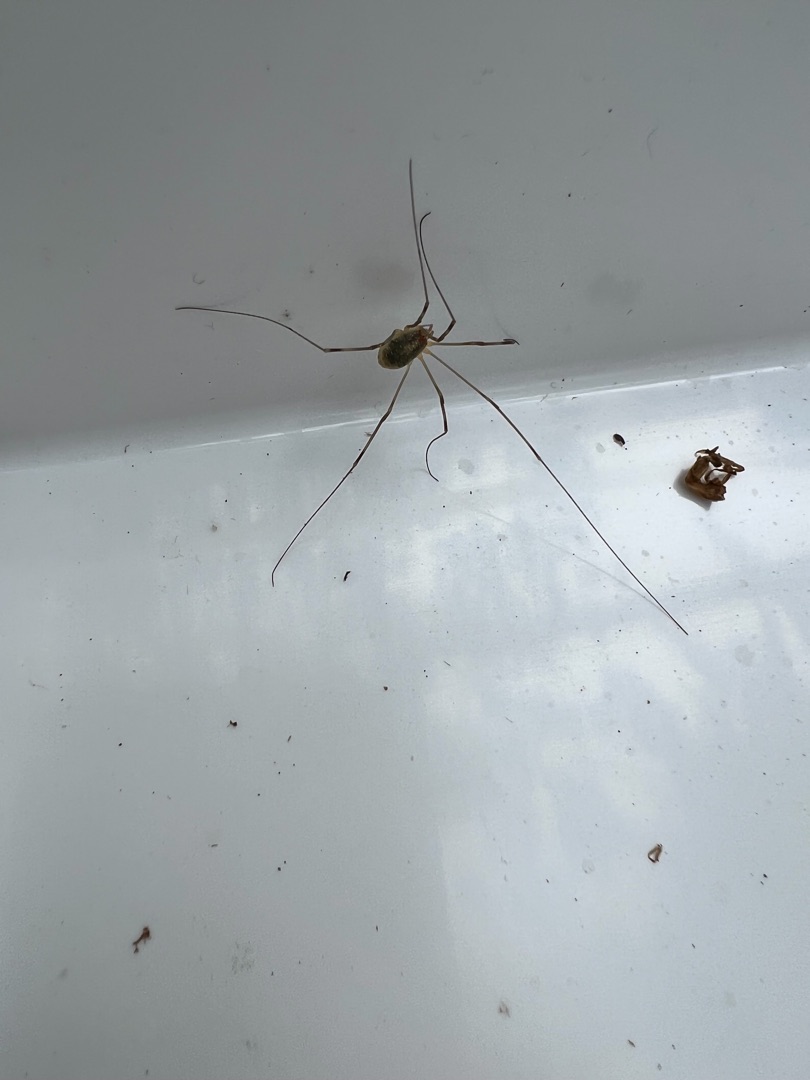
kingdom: Animalia
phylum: Arthropoda
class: Arachnida
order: Opiliones
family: Phalangiidae
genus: Opilio
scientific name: Opilio canestrinii
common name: Orange vægmejer
